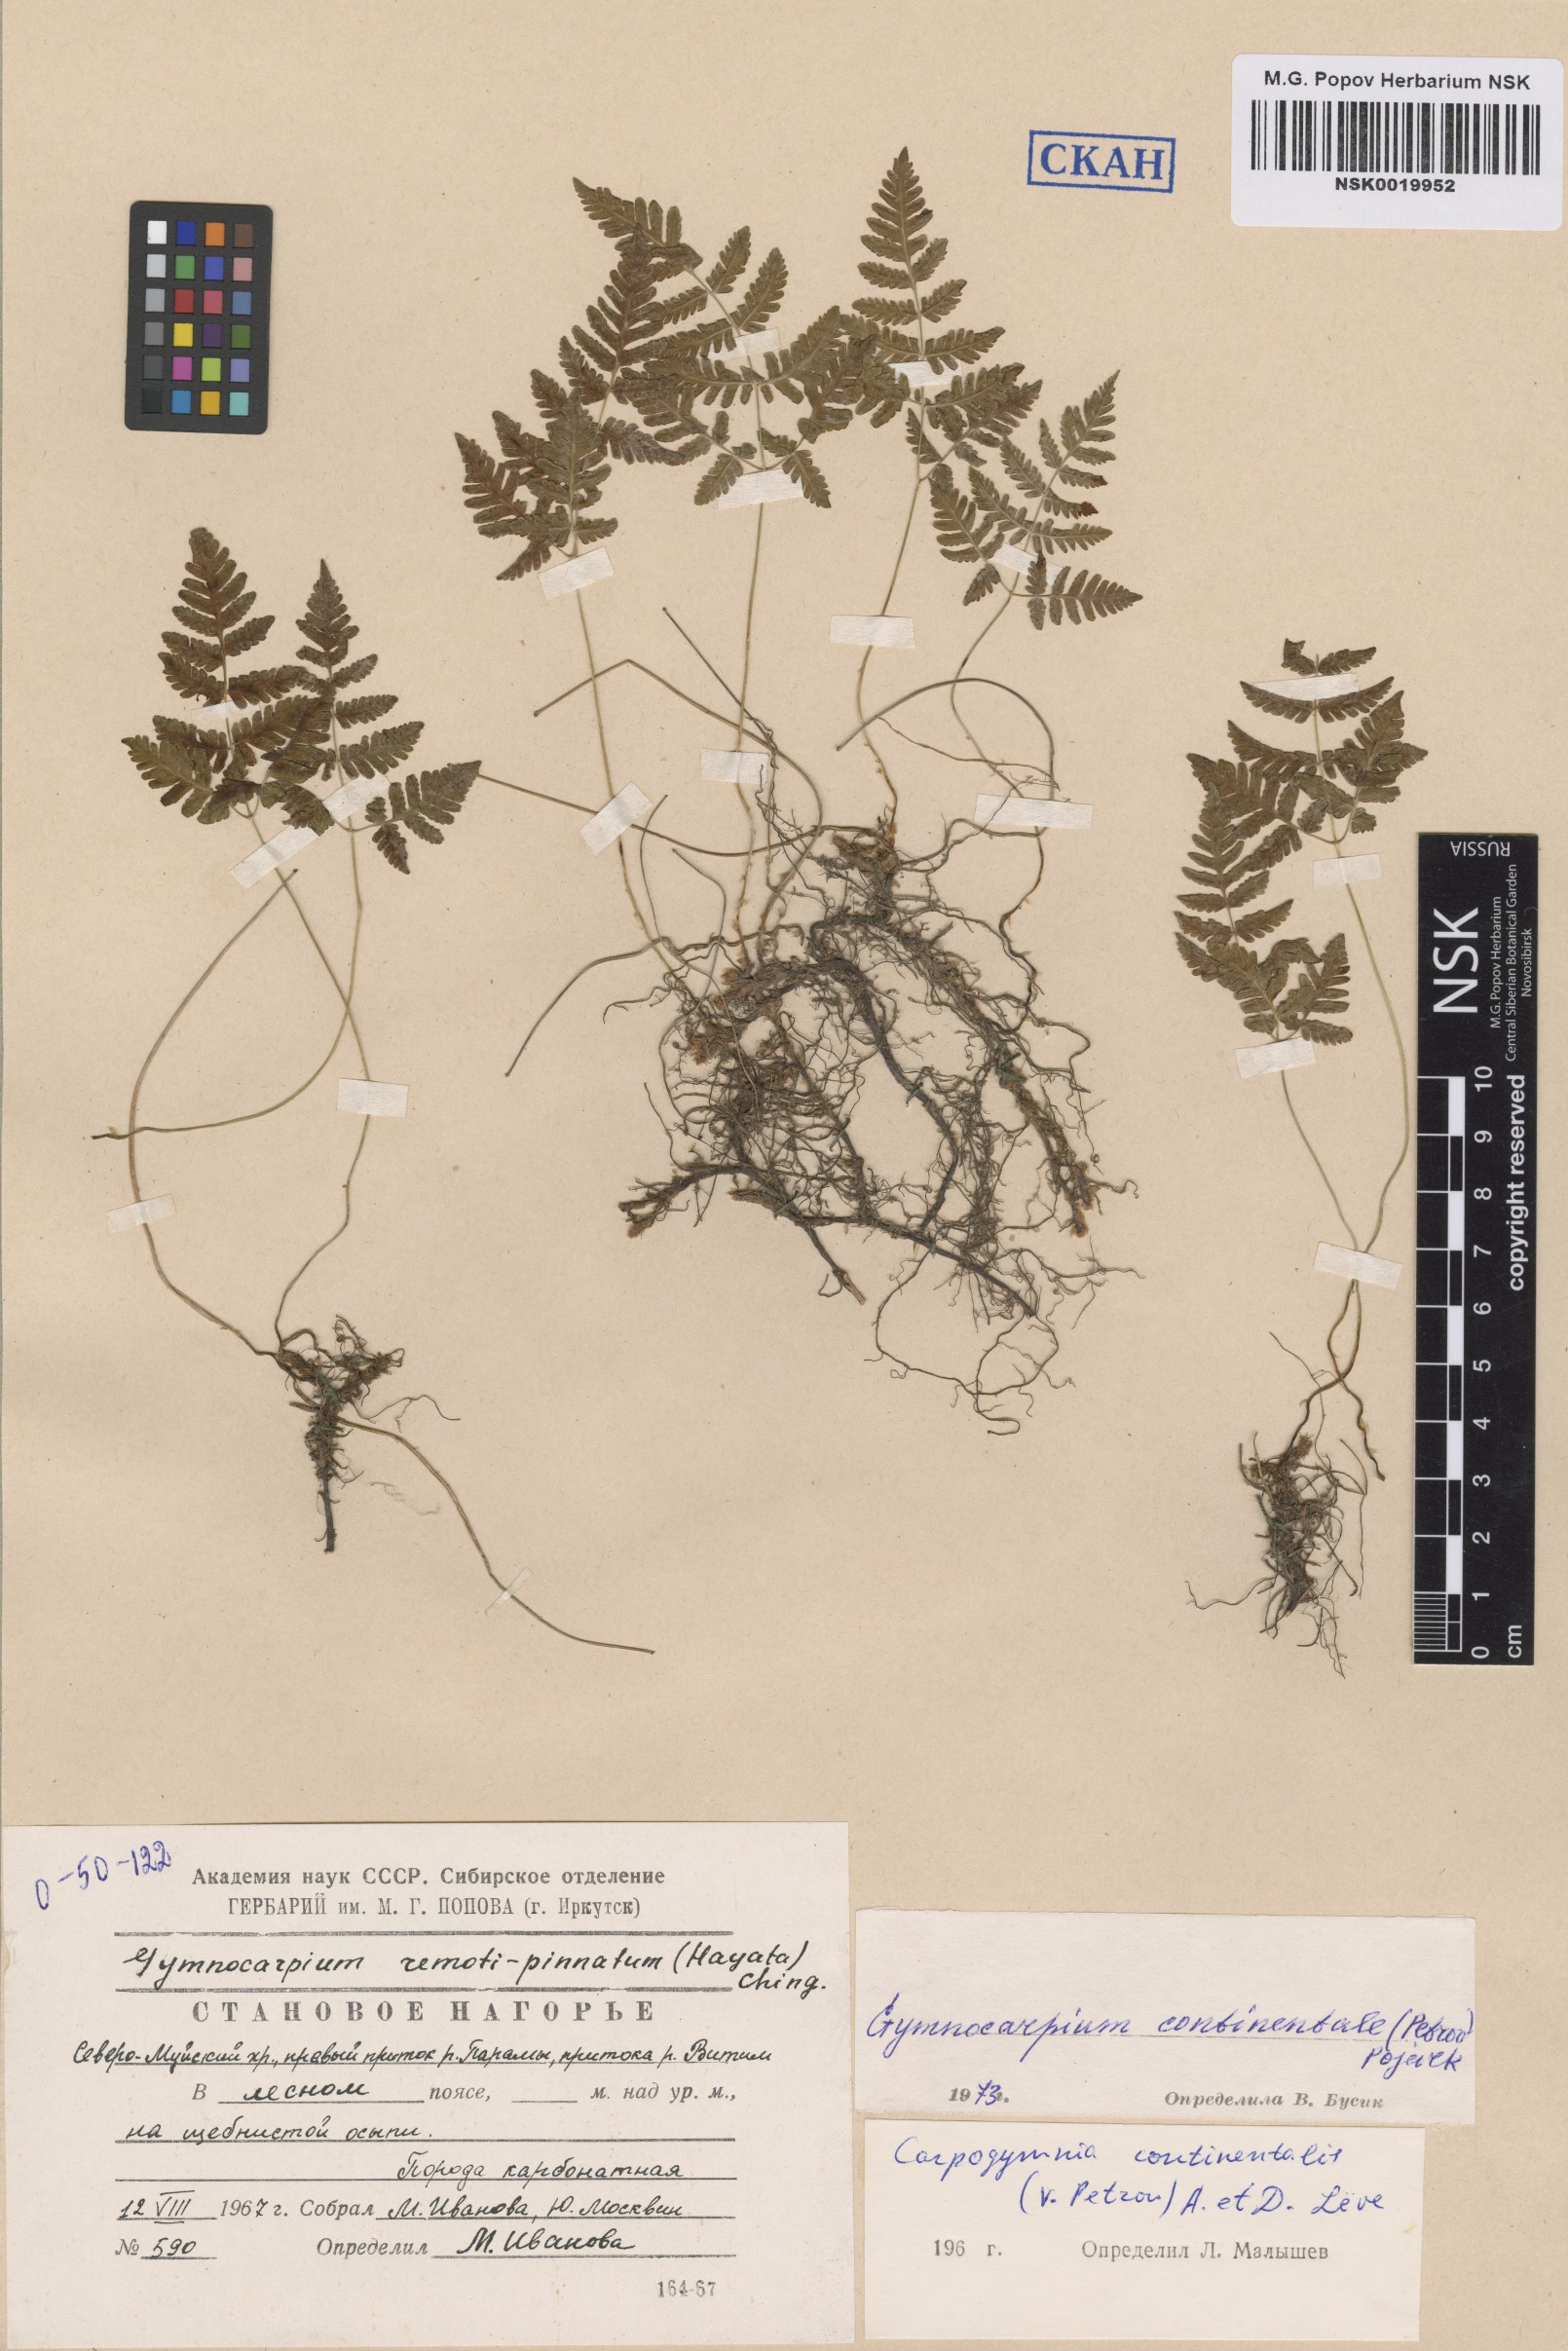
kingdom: Plantae
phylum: Tracheophyta
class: Polypodiopsida
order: Polypodiales
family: Cystopteridaceae
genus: Gymnocarpium
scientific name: Gymnocarpium continentale
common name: Asian oak fern
